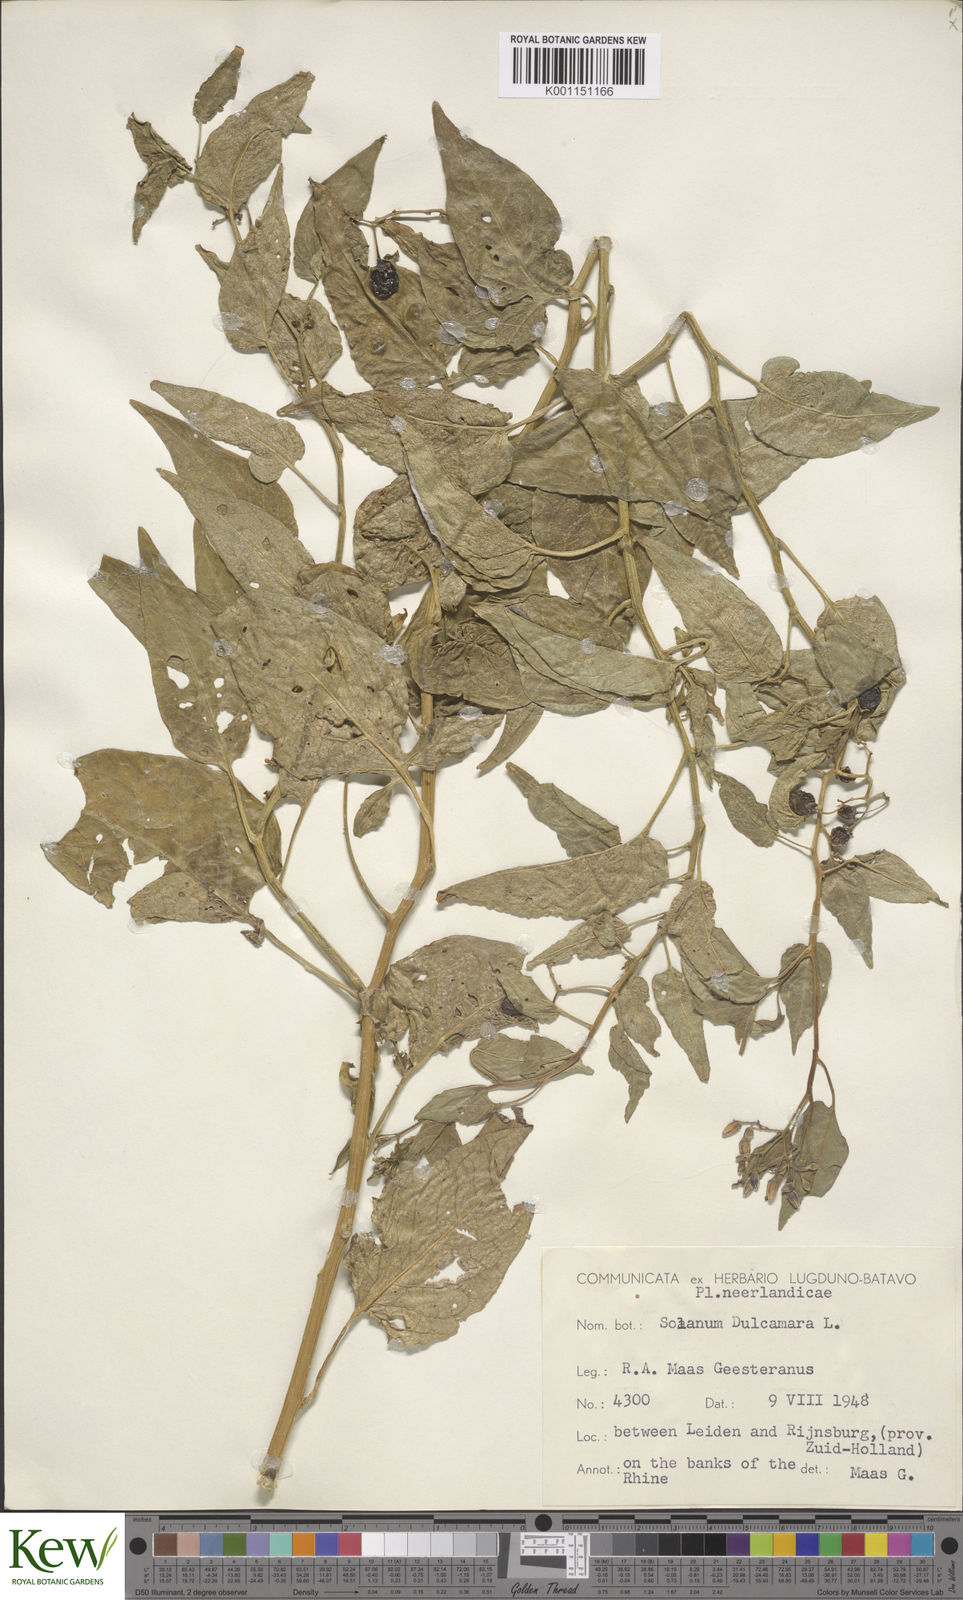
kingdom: Plantae
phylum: Tracheophyta
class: Magnoliopsida
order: Solanales
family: Solanaceae
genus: Solanum
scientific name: Solanum dulcamara
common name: Climbing nightshade
